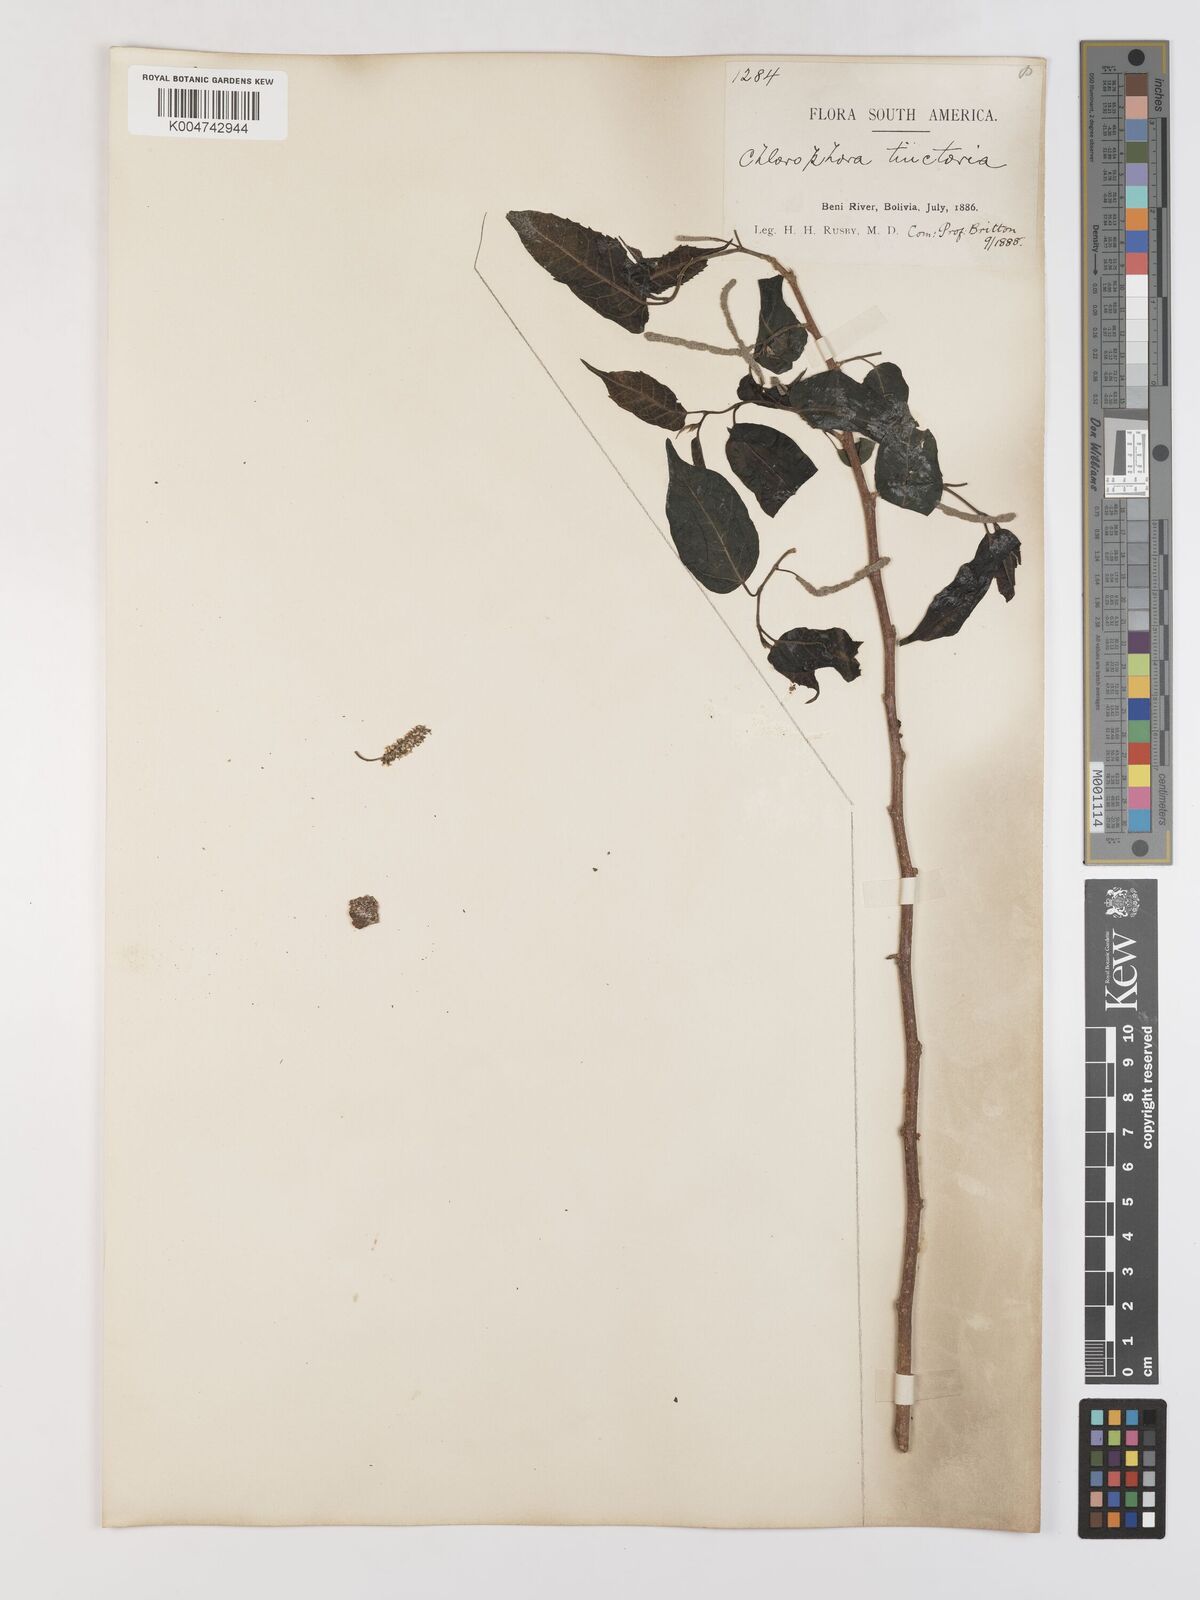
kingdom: Plantae
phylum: Tracheophyta
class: Magnoliopsida
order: Rosales
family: Moraceae
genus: Maclura
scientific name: Maclura tinctoria
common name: Old fustic
